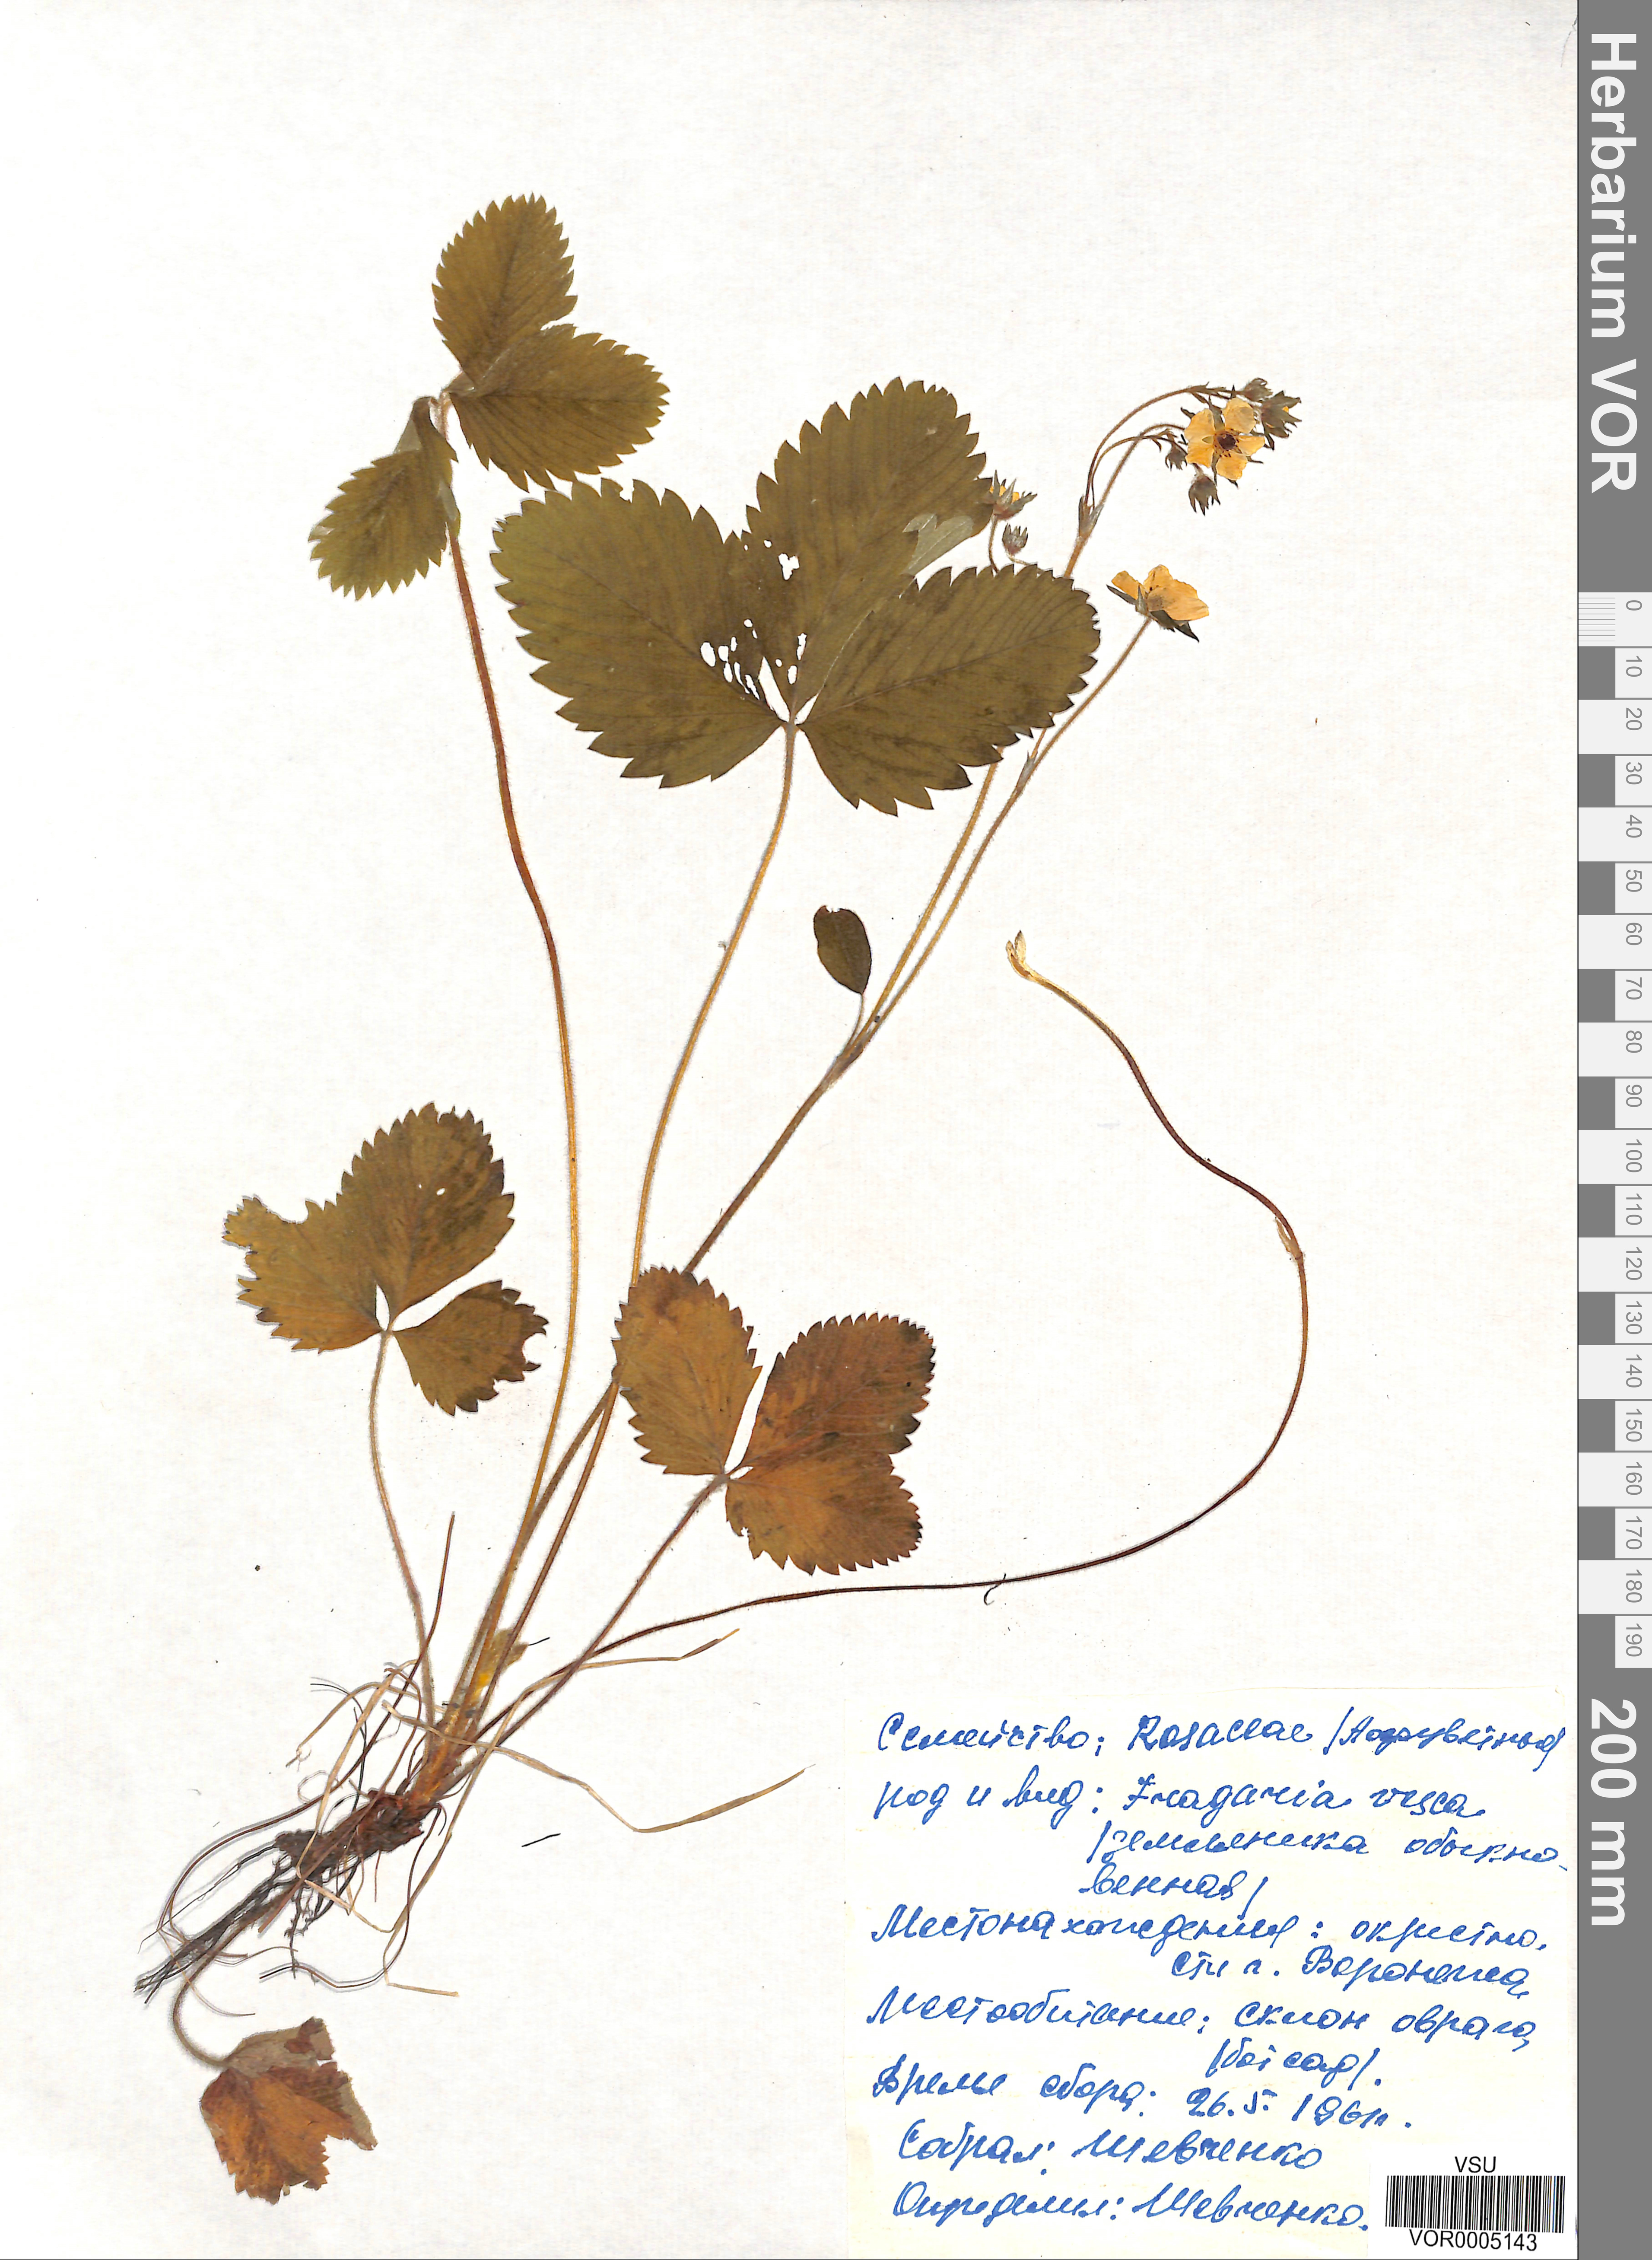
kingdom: Plantae
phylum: Tracheophyta
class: Magnoliopsida
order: Rosales
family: Rosaceae
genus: Fragaria
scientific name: Fragaria vesca
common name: Wild strawberry
